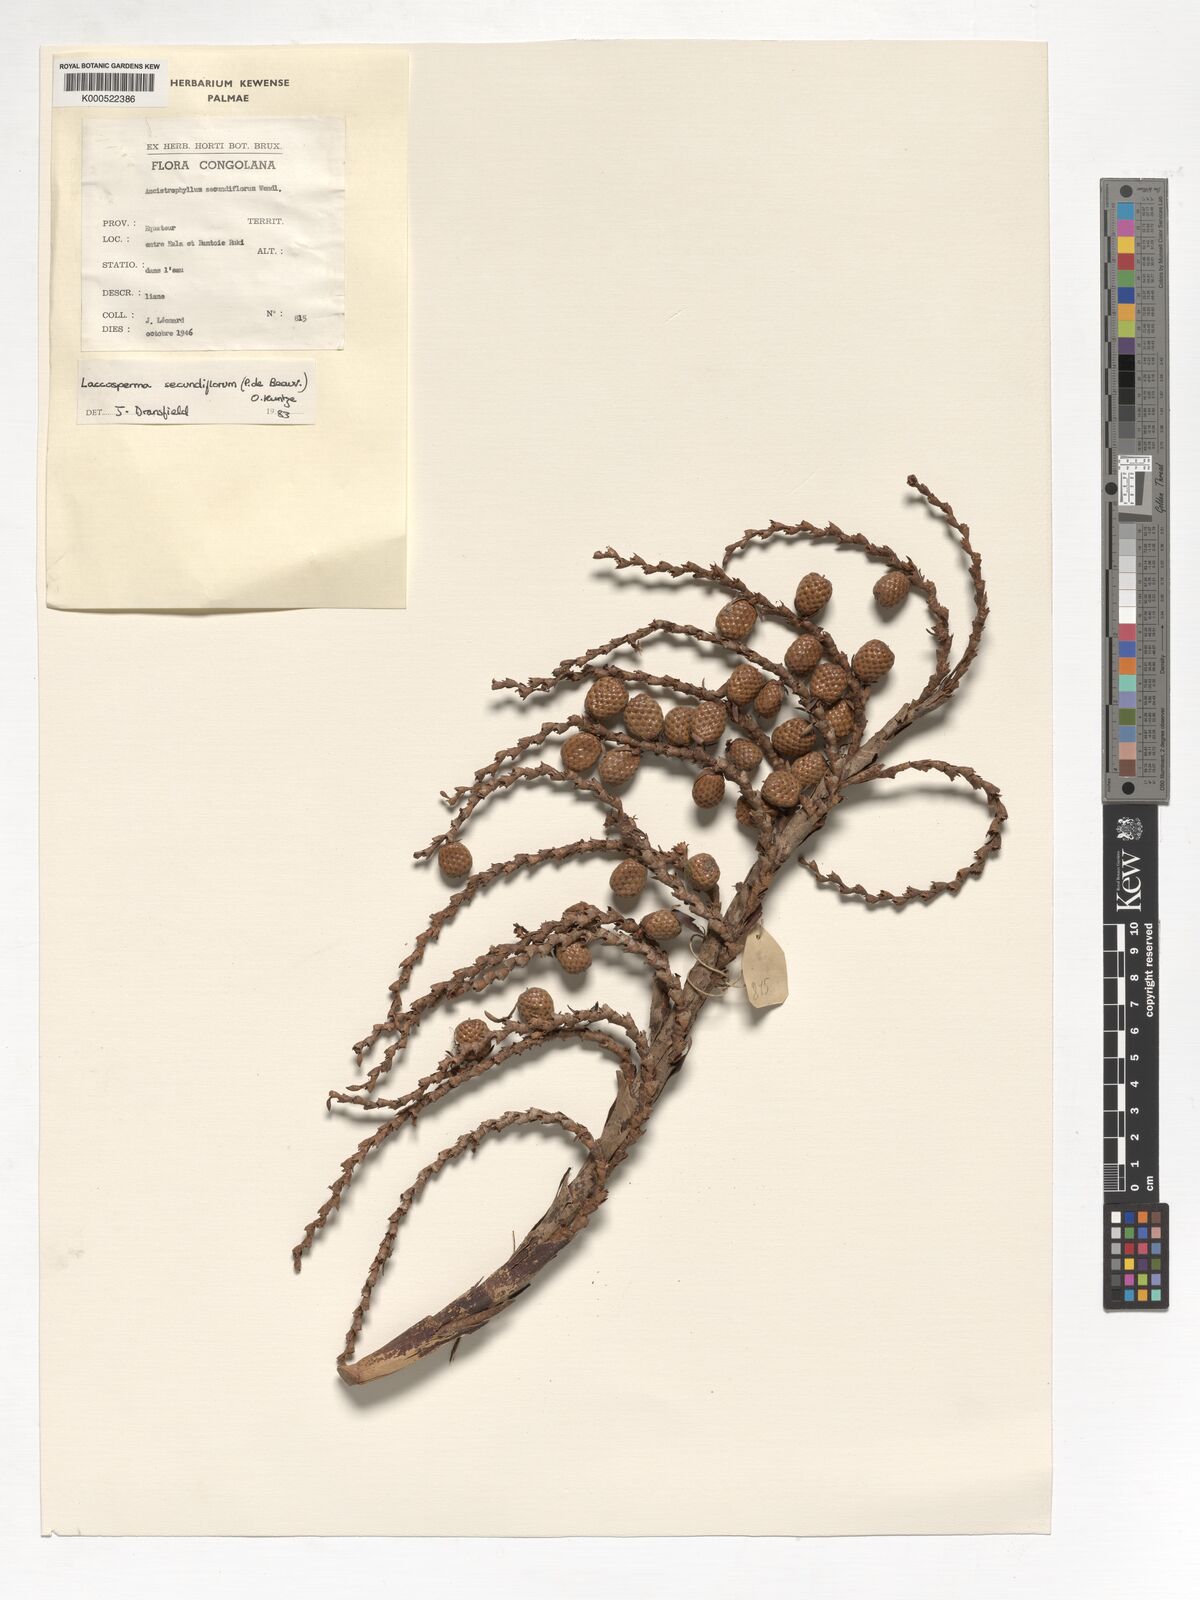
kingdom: Plantae
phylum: Tracheophyta
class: Liliopsida
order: Arecales
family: Arecaceae
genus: Laccosperma
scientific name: Laccosperma secundiflorum
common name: Rattan
